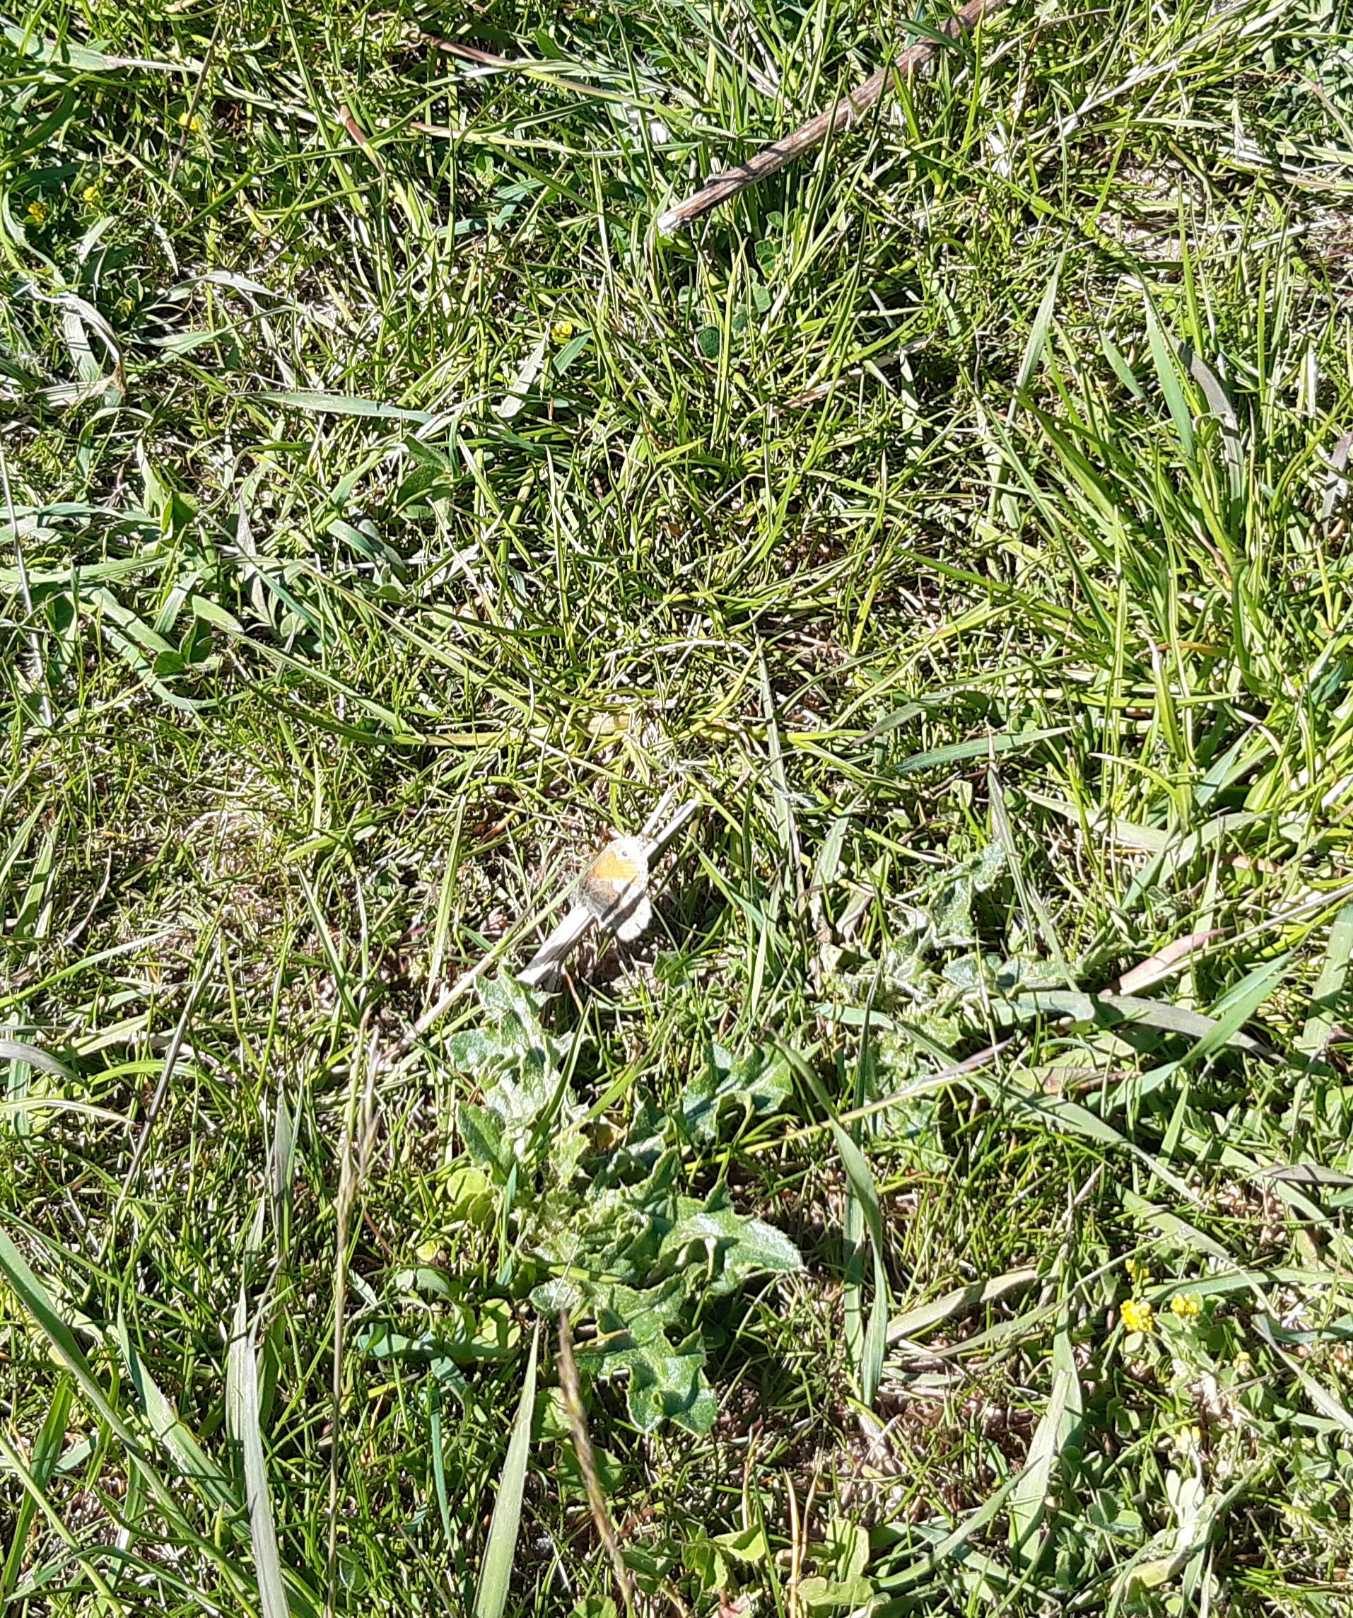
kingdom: Animalia
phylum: Arthropoda
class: Insecta
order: Lepidoptera
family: Nymphalidae
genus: Coenonympha
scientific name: Coenonympha pamphilus
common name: Okkergul randøje
